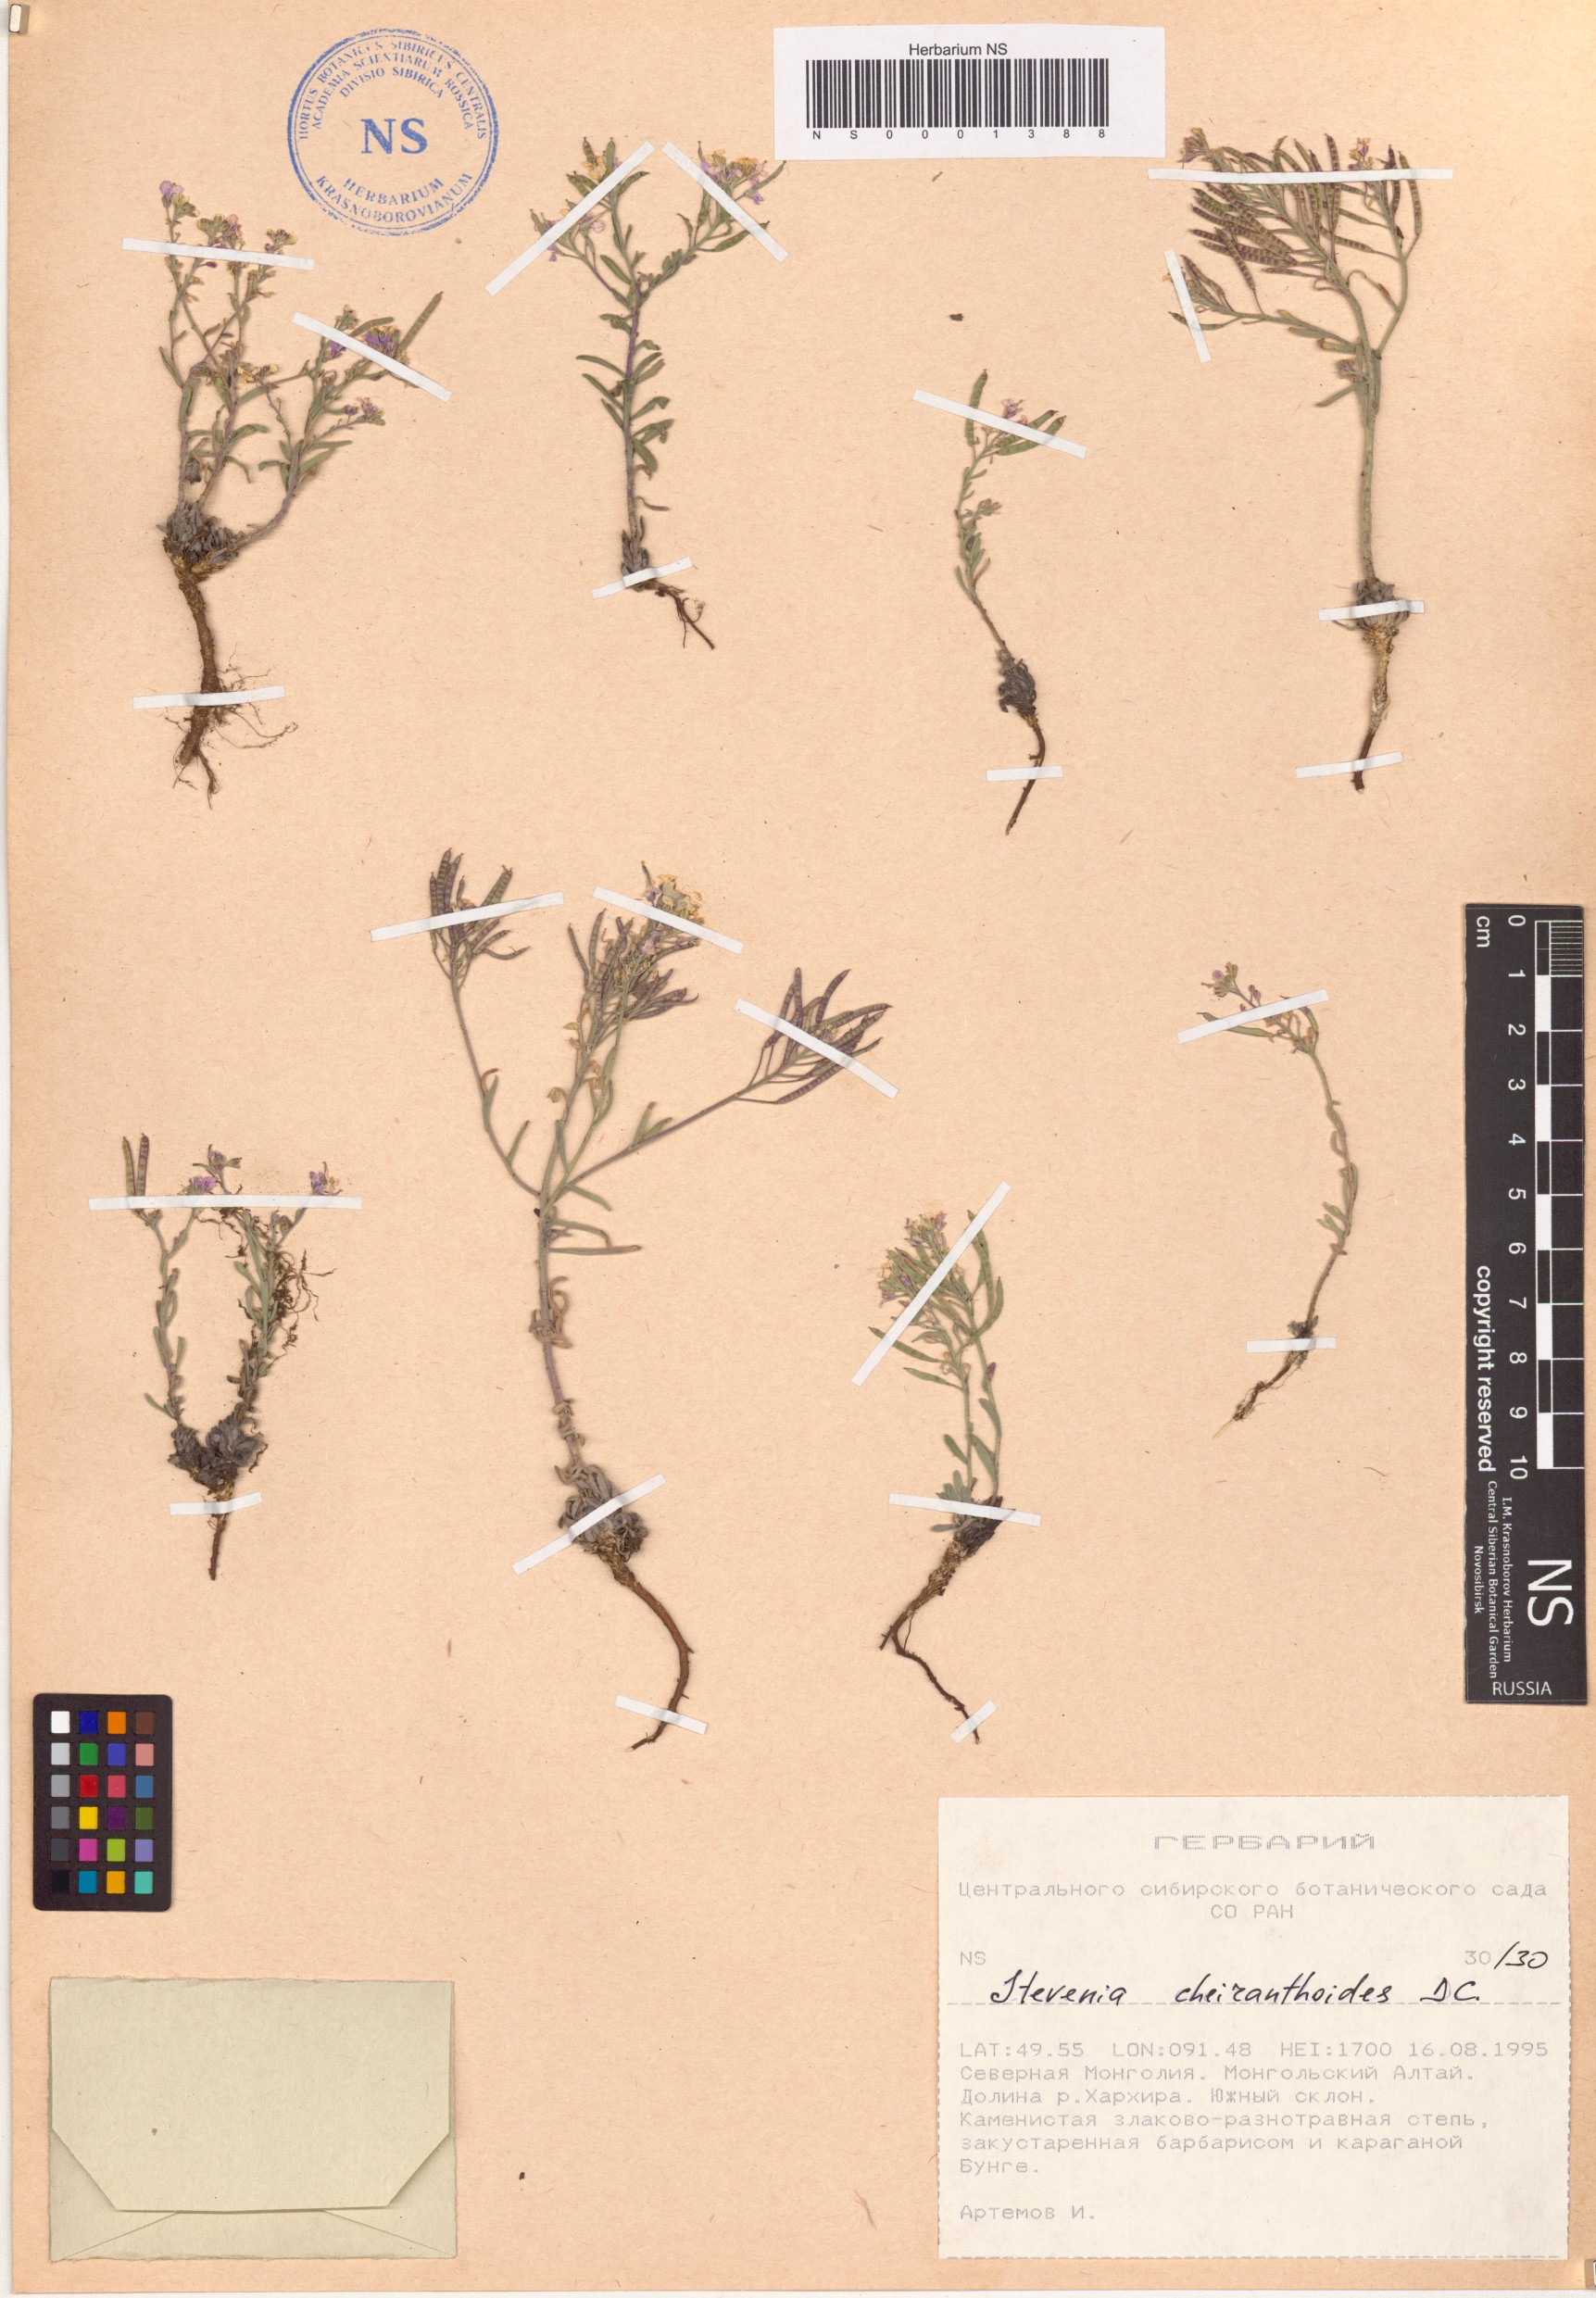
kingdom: Plantae
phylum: Tracheophyta
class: Magnoliopsida
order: Brassicales
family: Brassicaceae
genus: Stevenia
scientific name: Stevenia cheiranthoides
